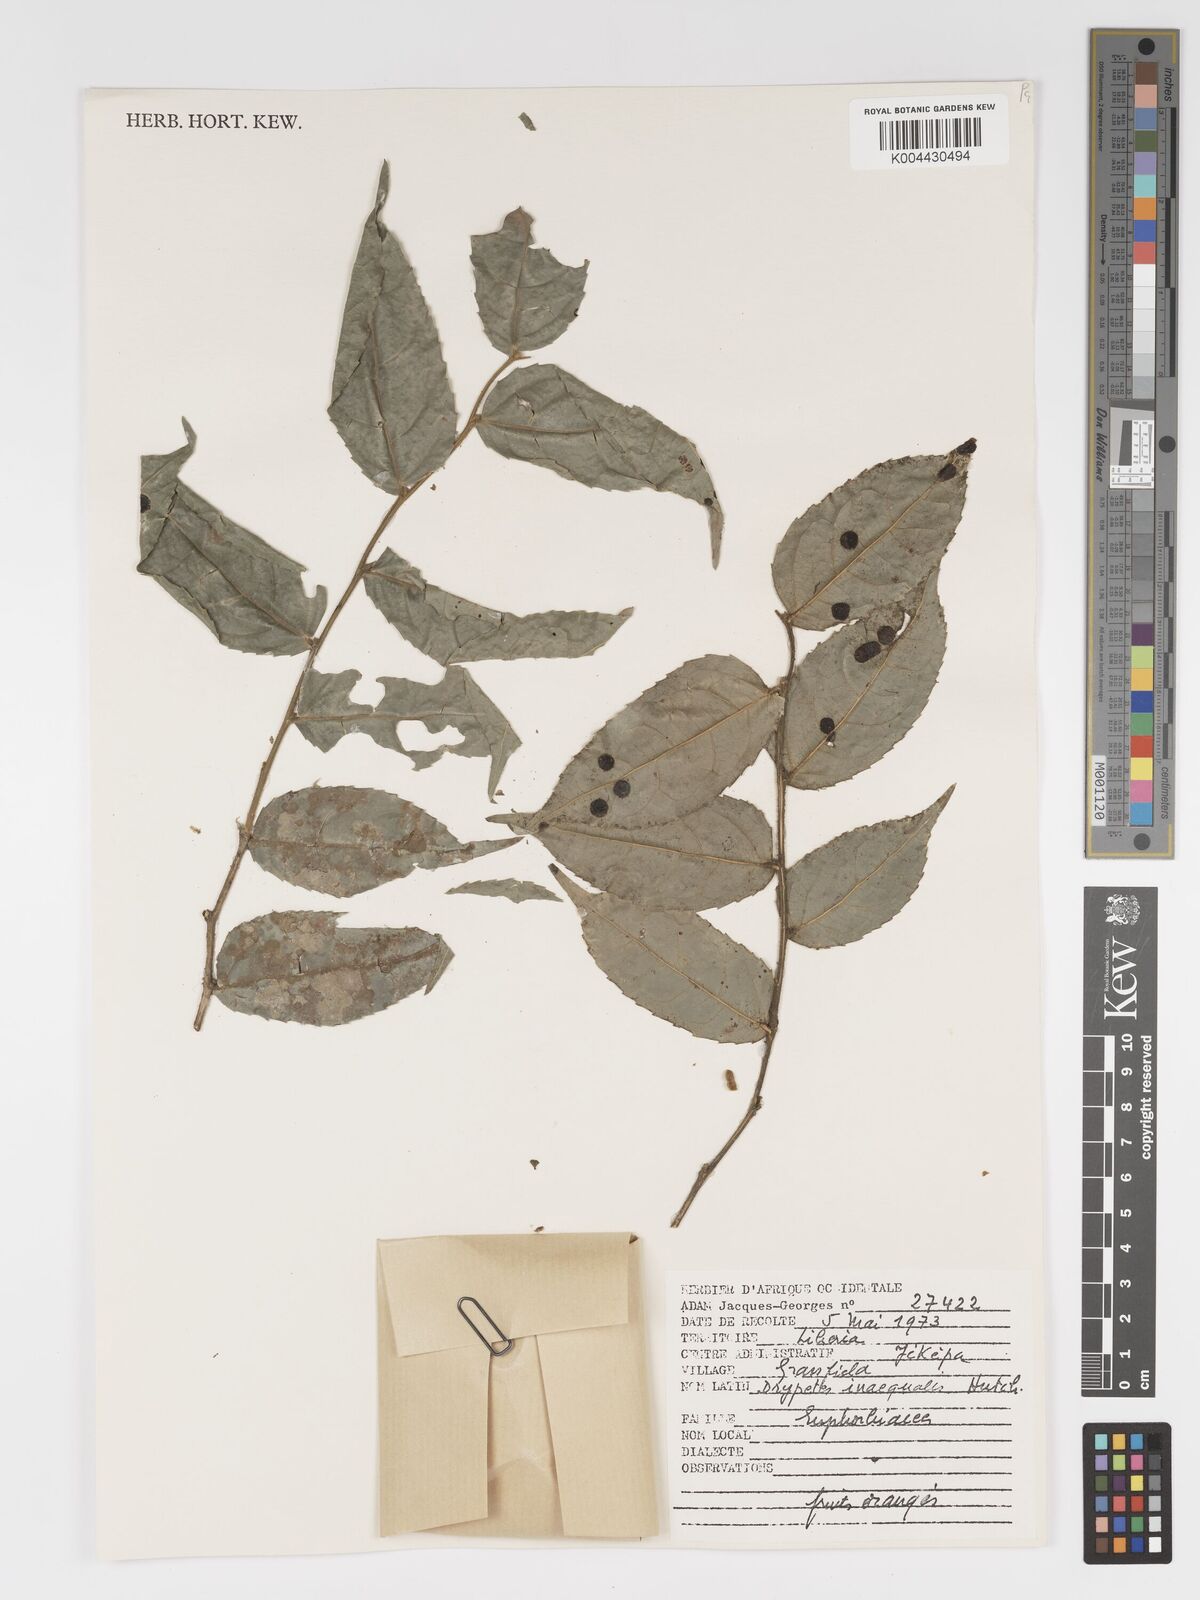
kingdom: Plantae
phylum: Tracheophyta
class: Magnoliopsida
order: Malpighiales
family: Putranjivaceae
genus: Drypetes
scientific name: Drypetes inaequalis
